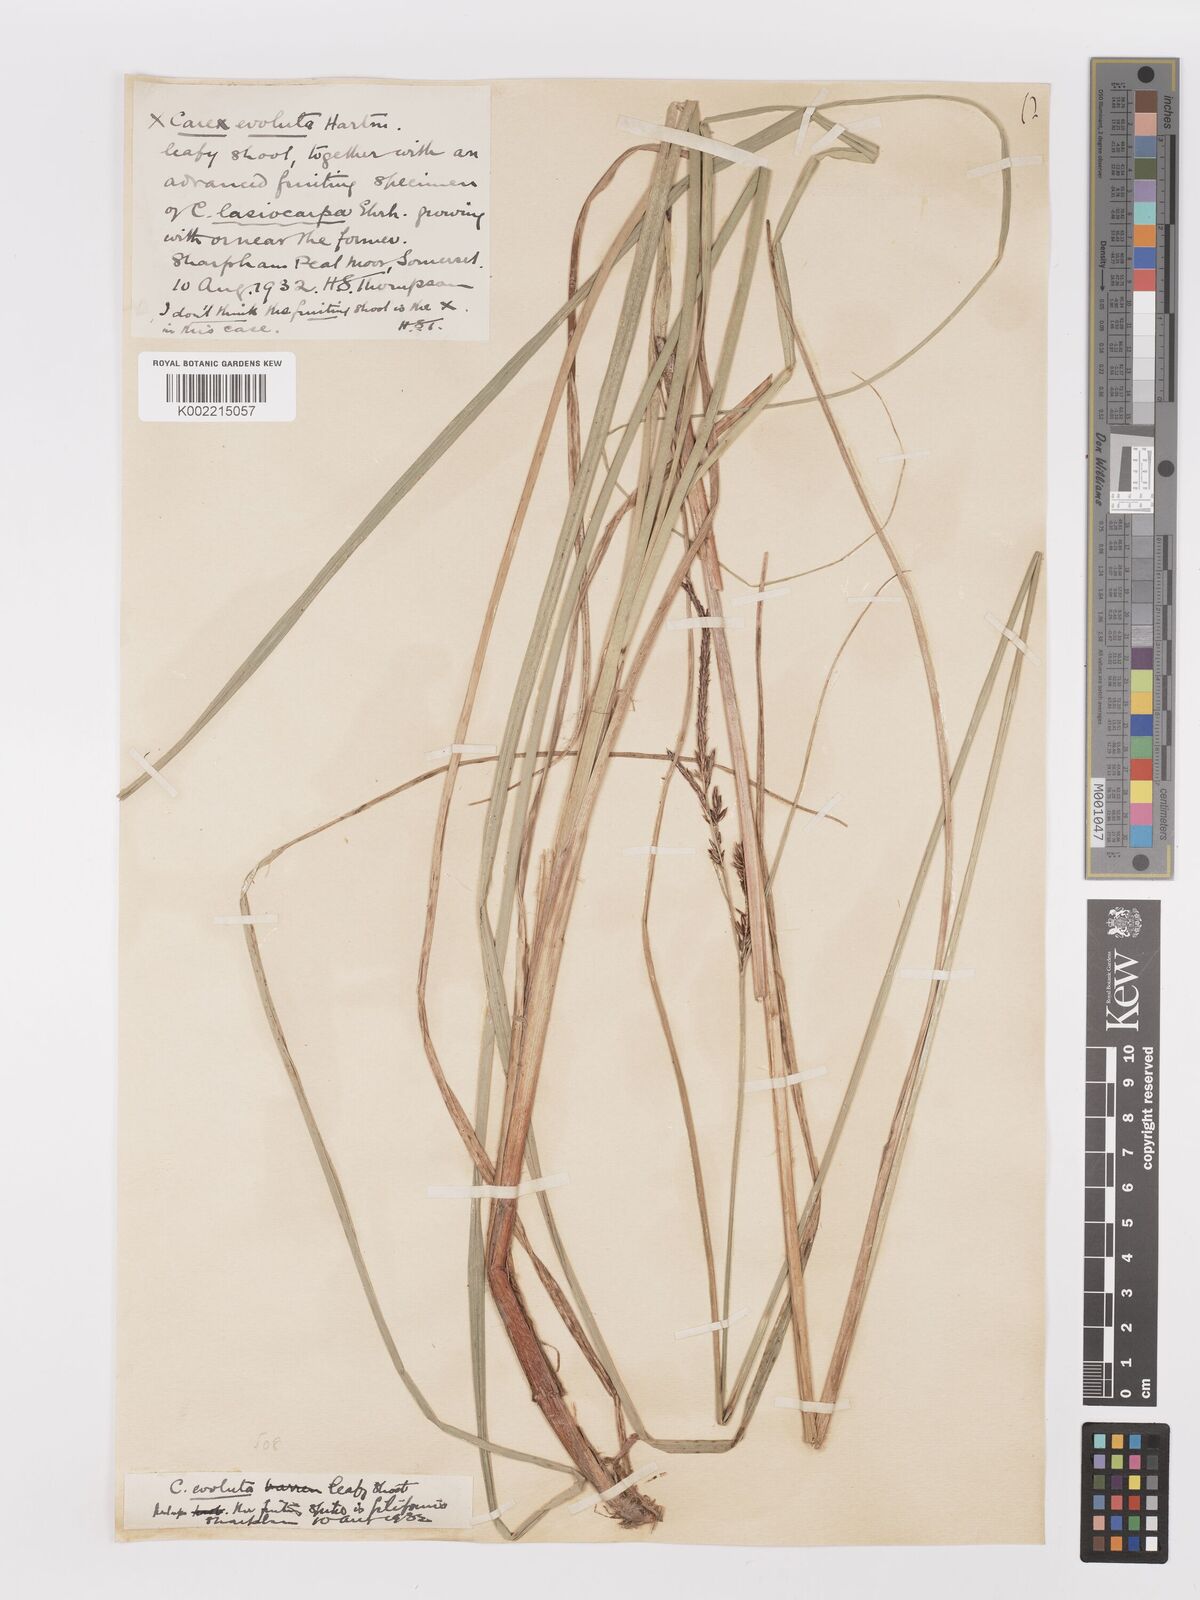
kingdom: Plantae
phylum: Tracheophyta
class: Liliopsida
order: Poales
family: Cyperaceae
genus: Carex
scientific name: Carex evoluta
